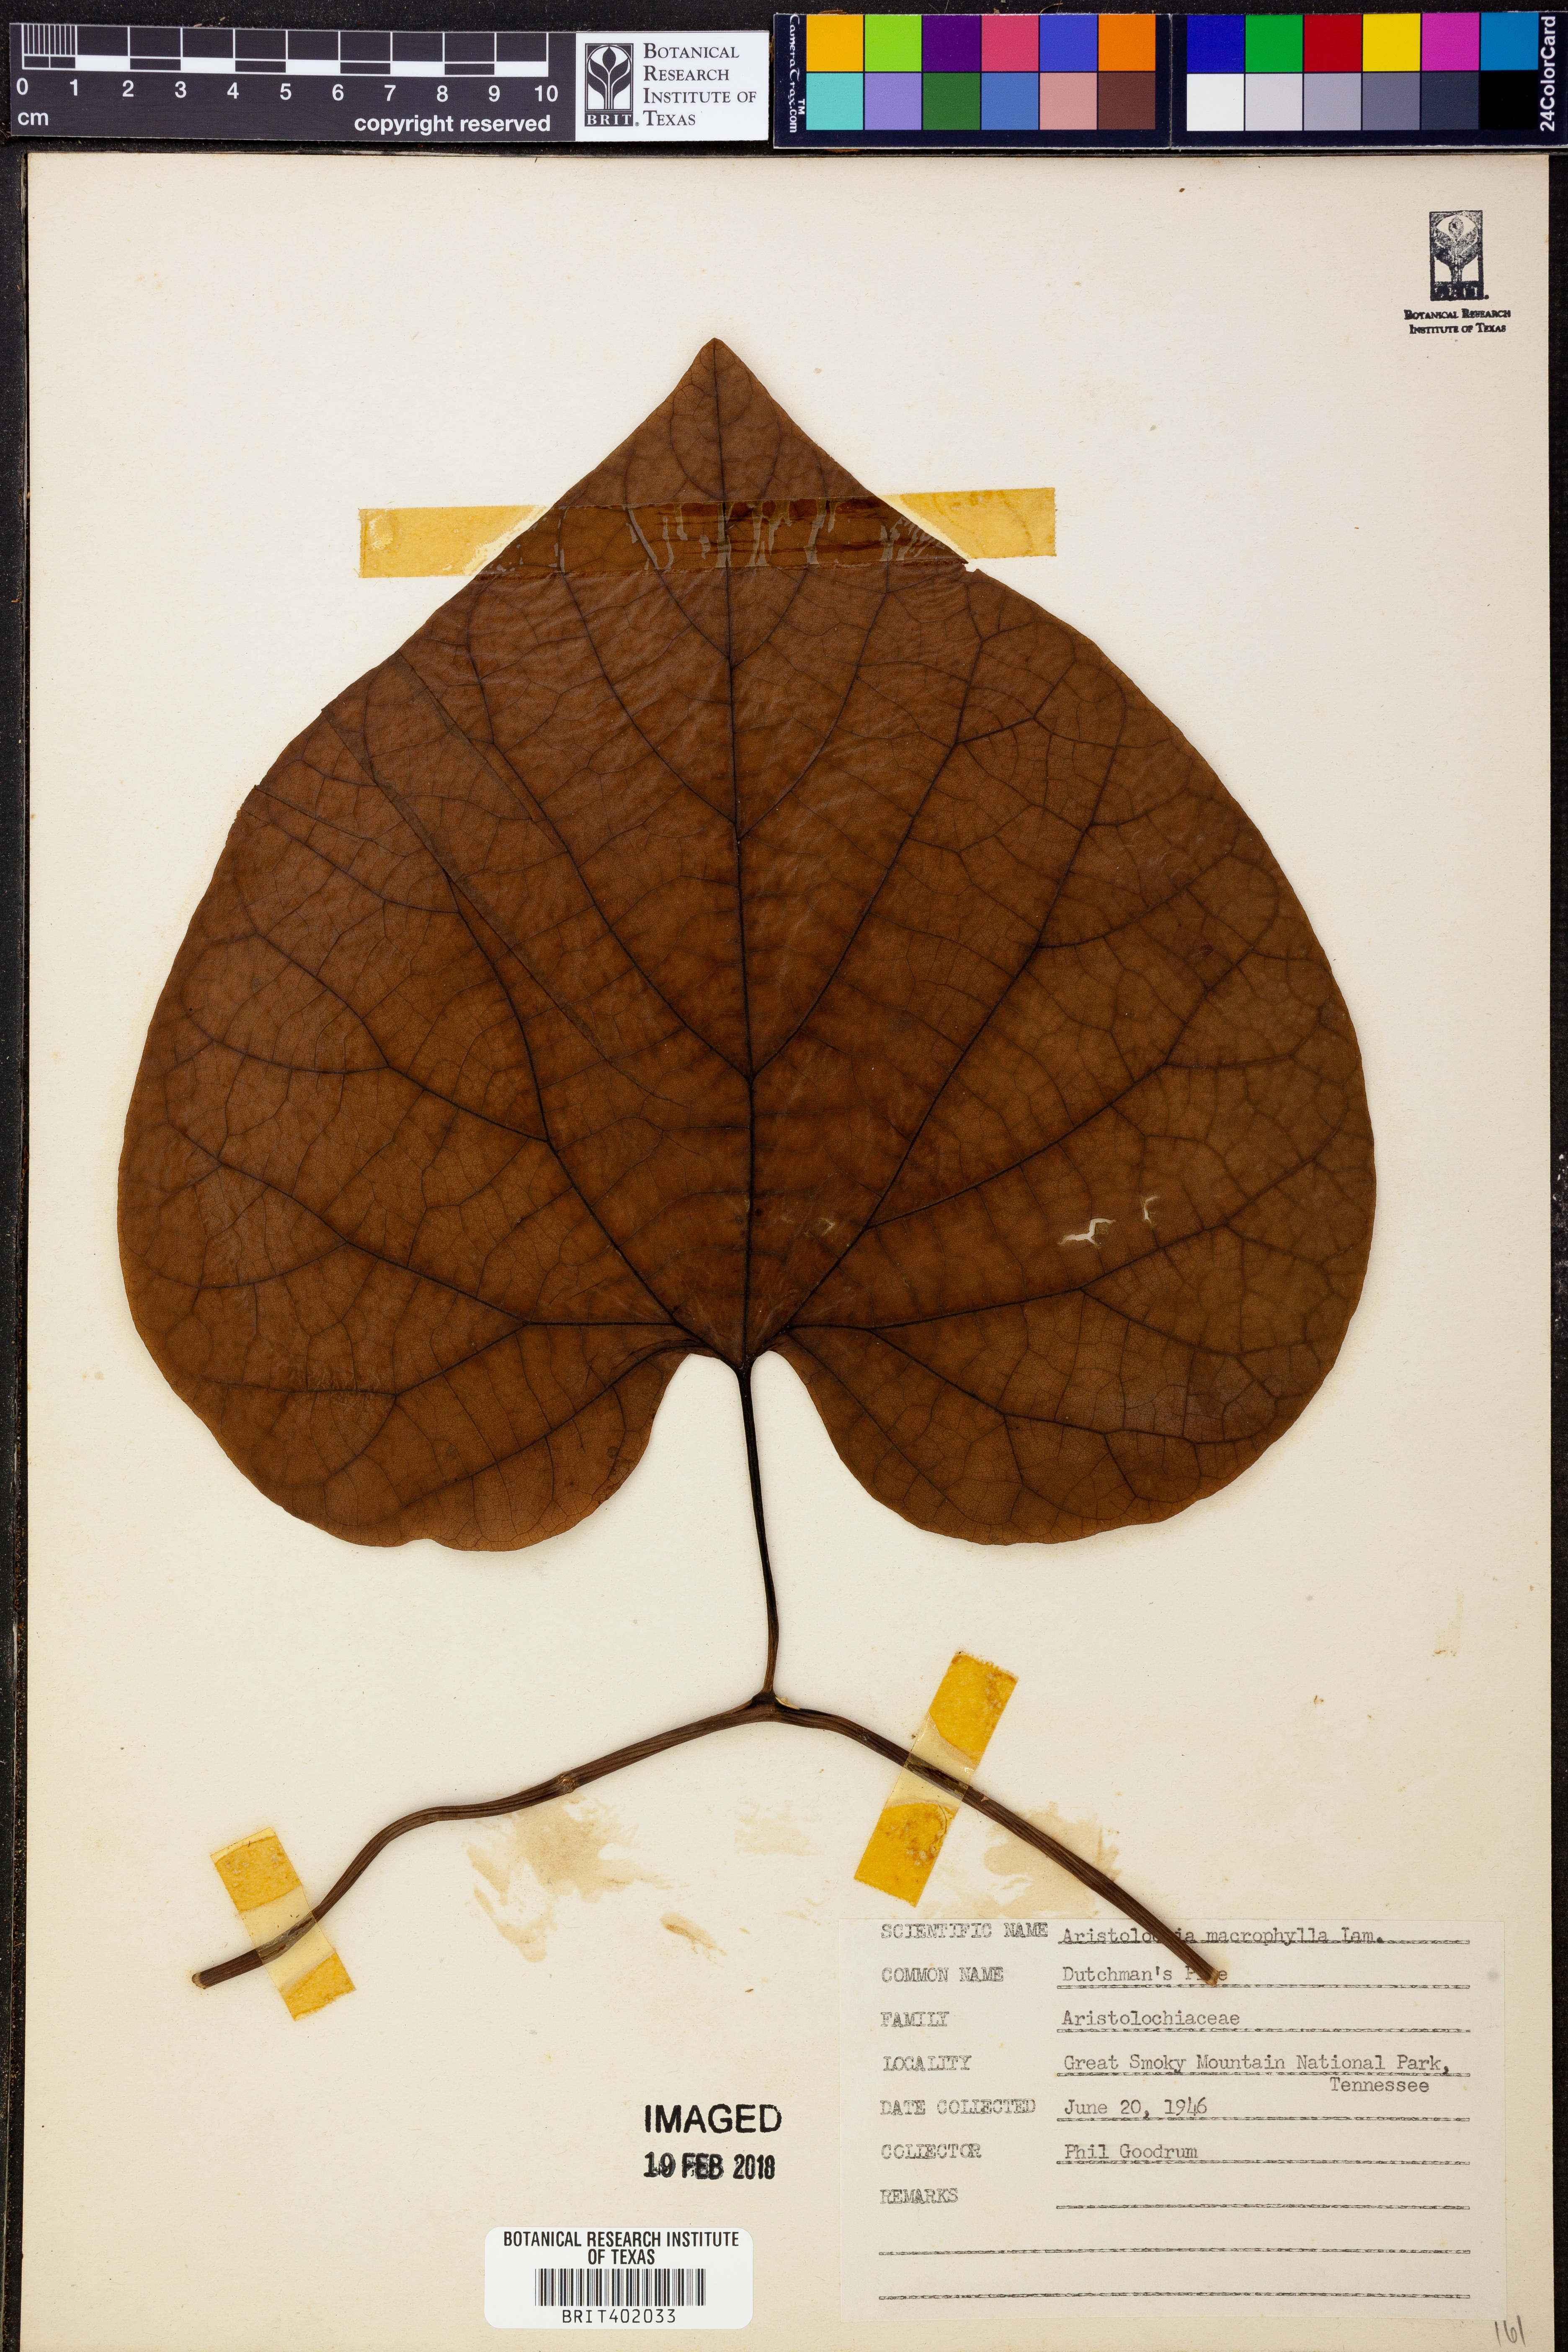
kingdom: Plantae
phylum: Tracheophyta
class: Magnoliopsida
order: Piperales
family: Aristolochiaceae
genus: Isotrema
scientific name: Isotrema macrophyllum
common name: Dutchman's-pipe
